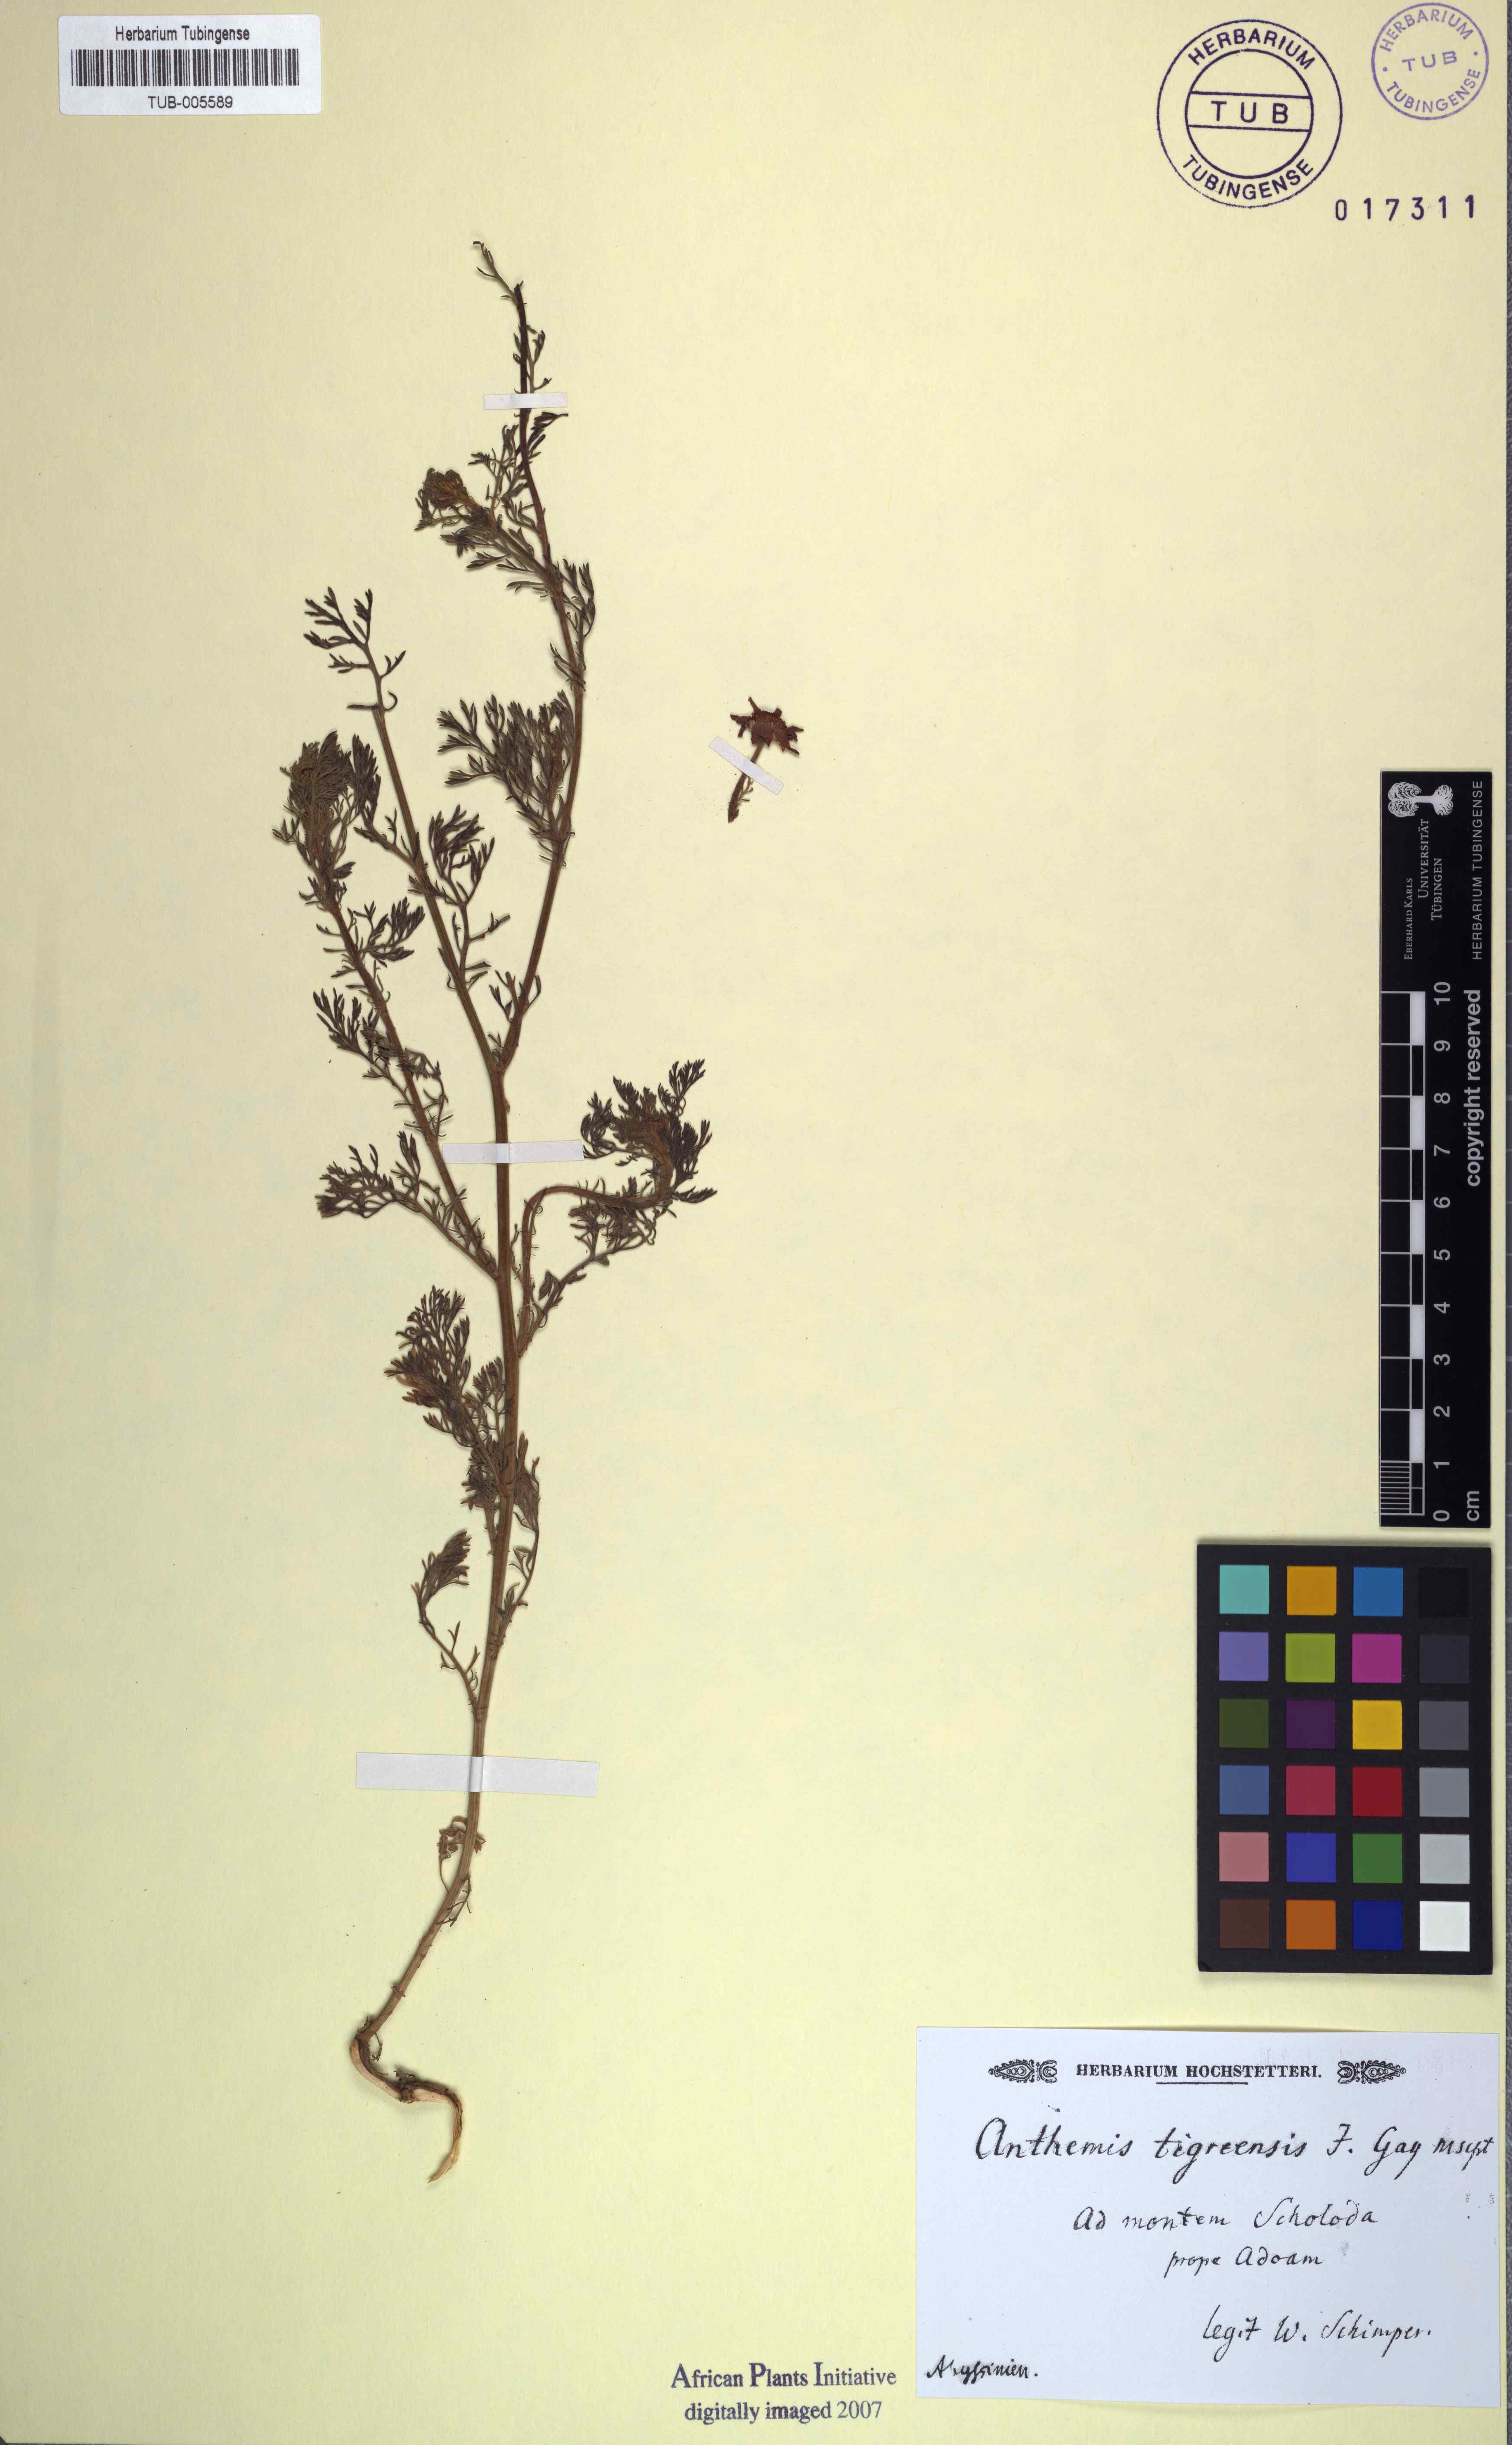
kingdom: Plantae
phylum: Tracheophyta
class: Magnoliopsida
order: Asterales
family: Asteraceae
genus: Anthemis
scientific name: Anthemis tigreensis
